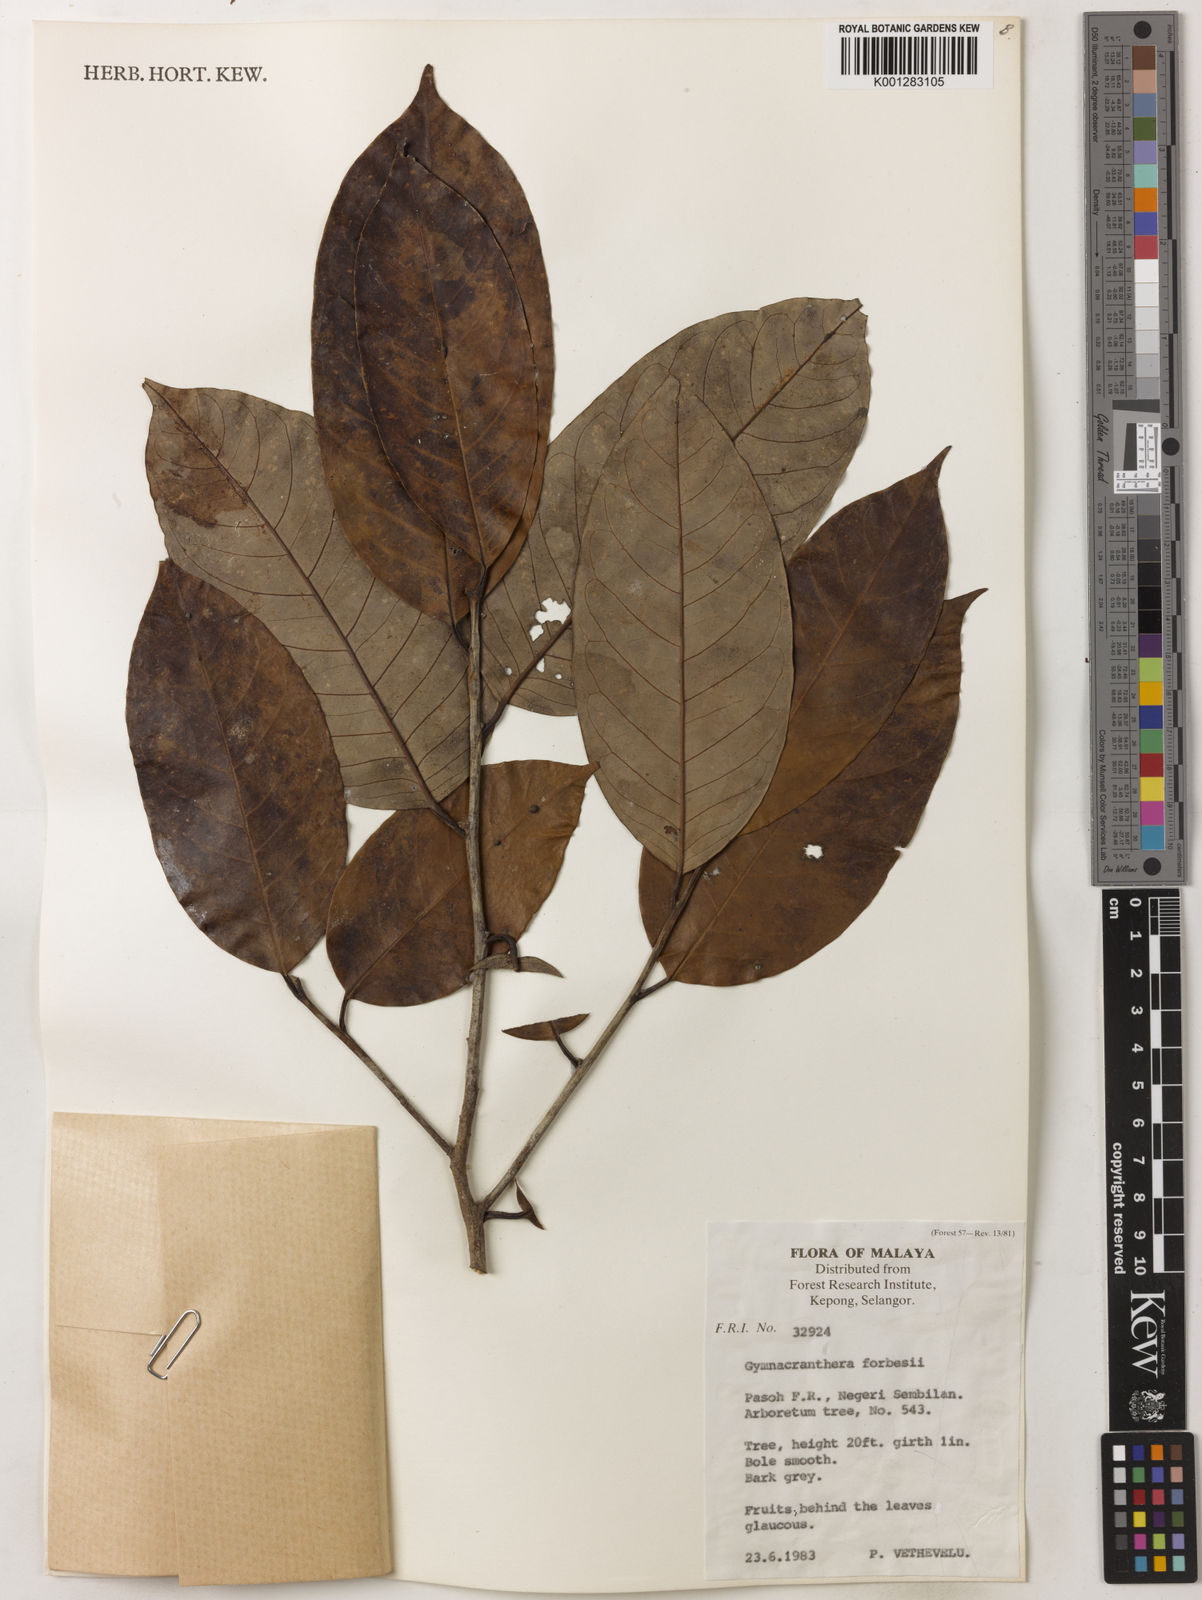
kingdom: Plantae
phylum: Tracheophyta
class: Magnoliopsida
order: Magnoliales
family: Myristicaceae
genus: Gymnacranthera
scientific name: Gymnacranthera forbesii
